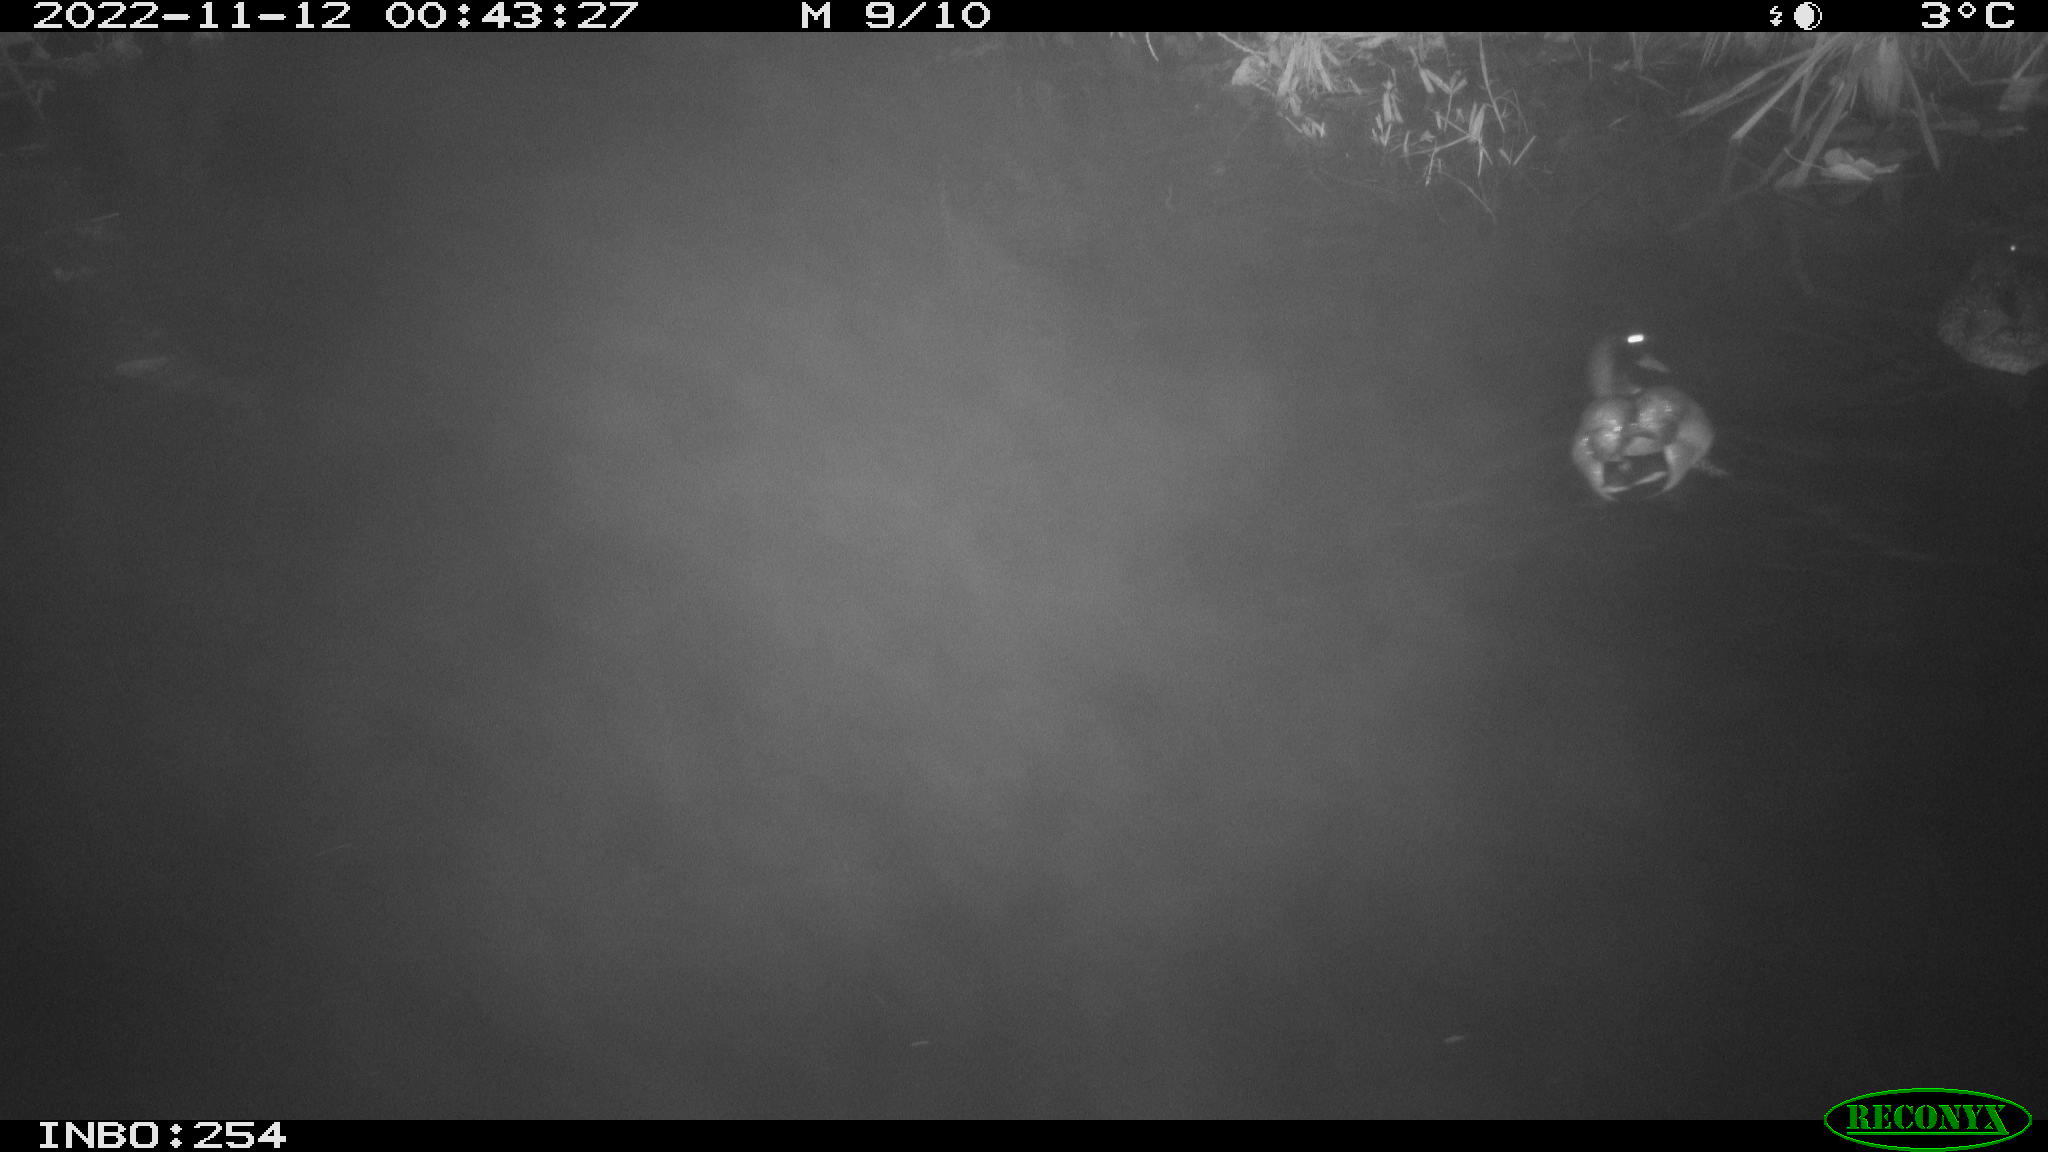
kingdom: Animalia
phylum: Chordata
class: Aves
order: Anseriformes
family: Anatidae
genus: Anas
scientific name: Anas
